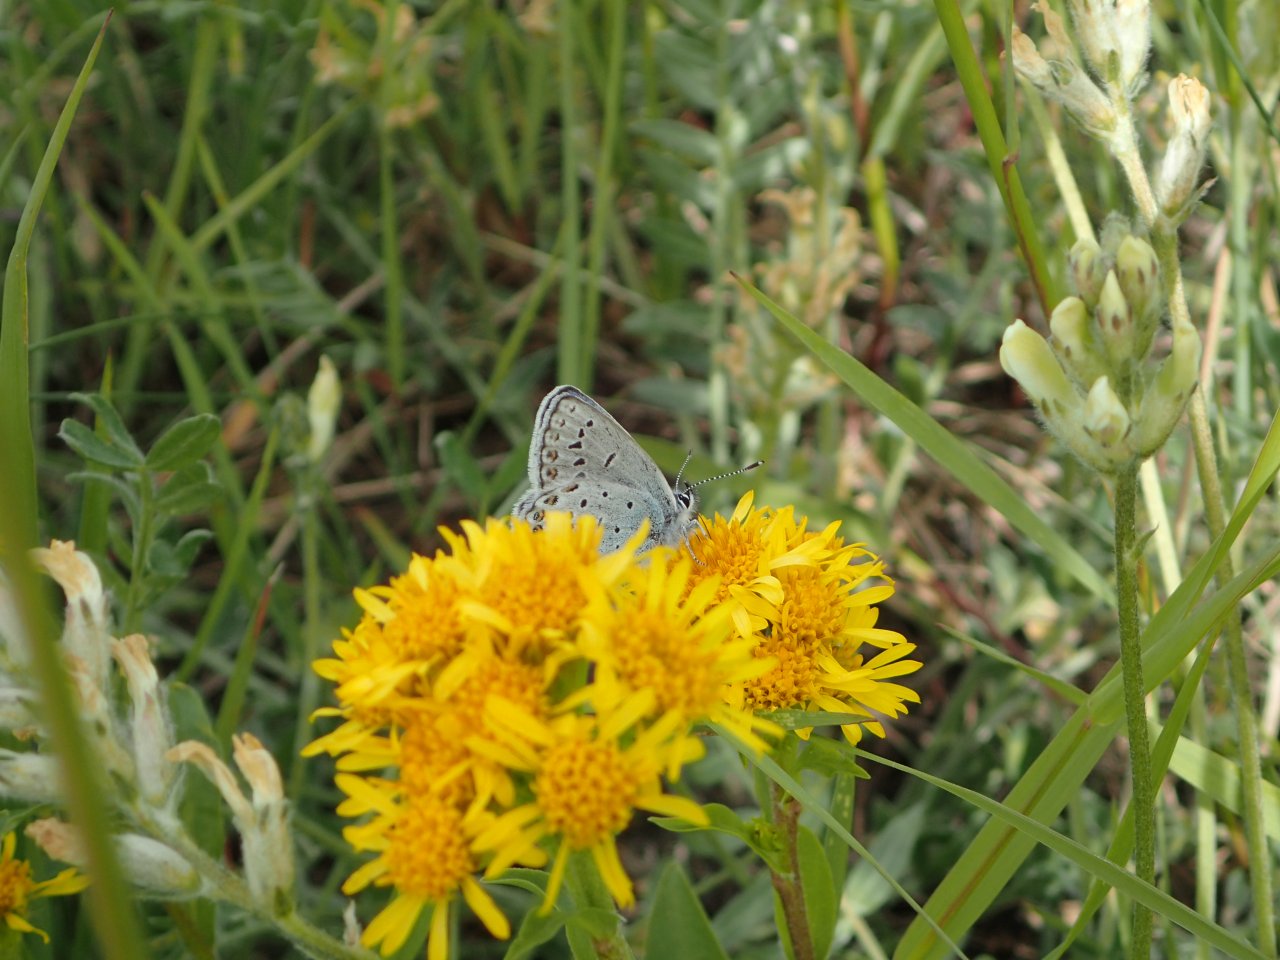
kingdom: Animalia
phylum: Arthropoda
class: Insecta
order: Lepidoptera
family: Lycaenidae
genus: Lycaeides
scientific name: Lycaeides idas
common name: Northern Blue
